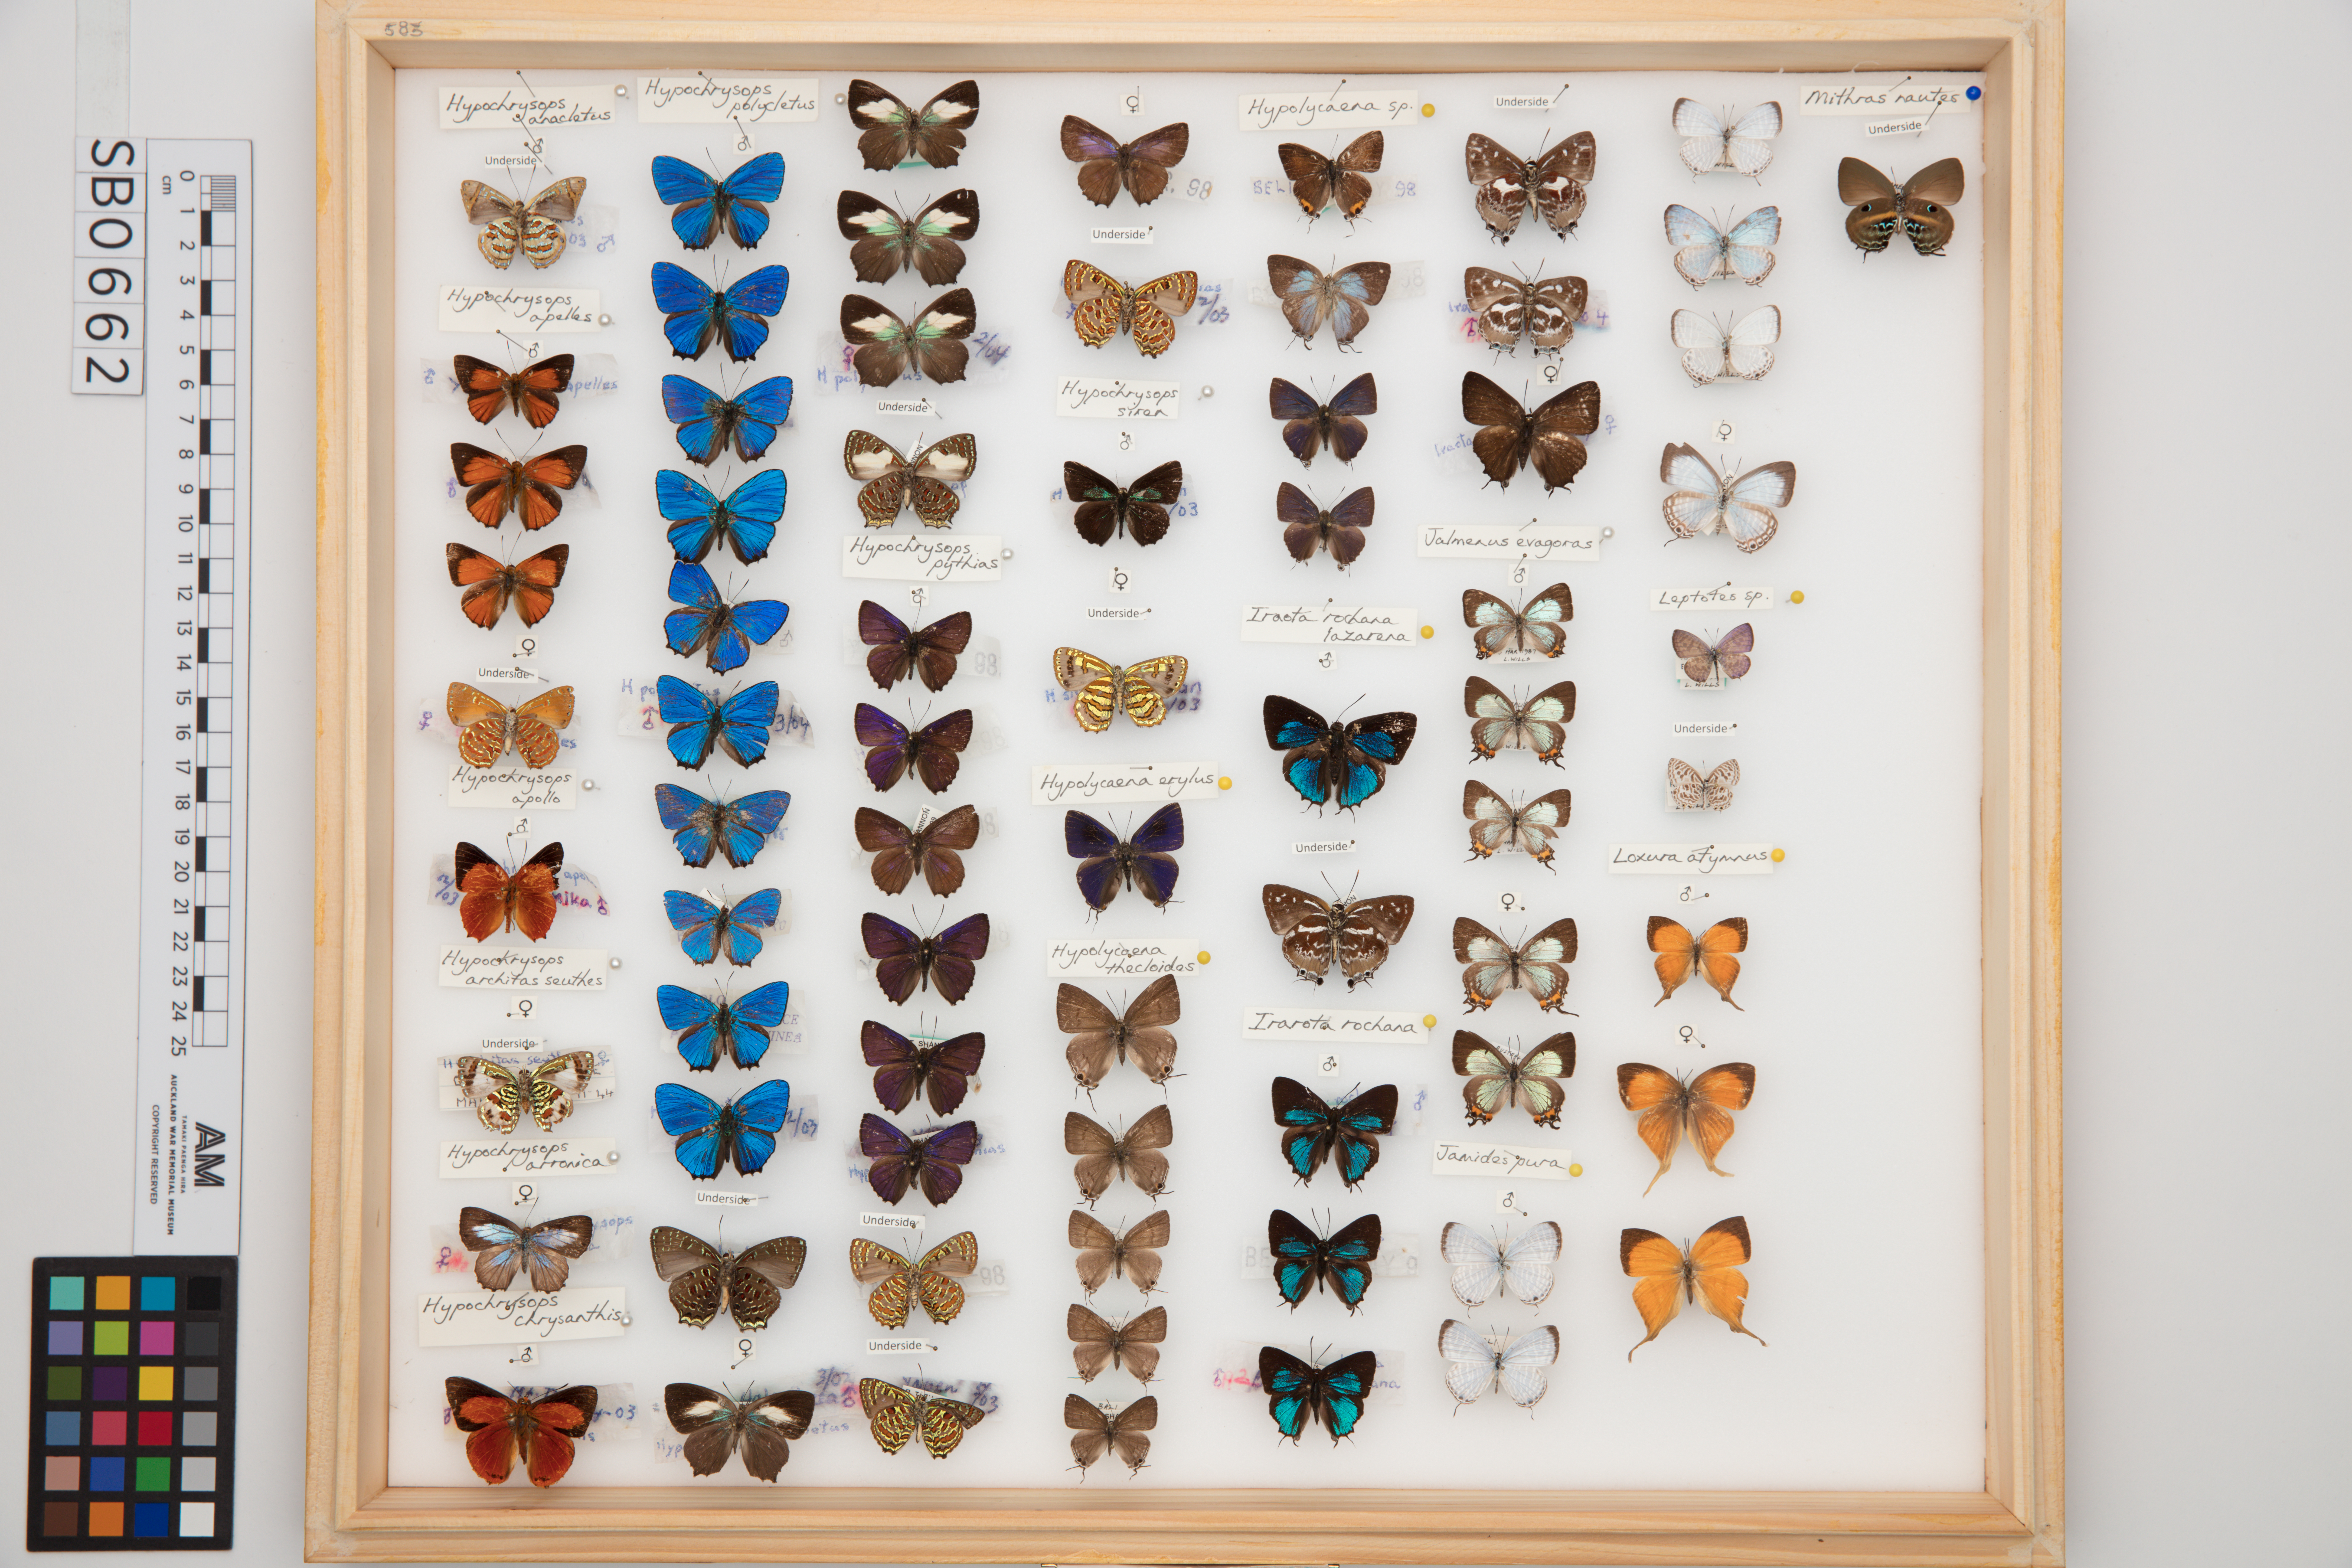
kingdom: Animalia
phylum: Arthropoda
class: Insecta
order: Lepidoptera
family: Lycaenidae
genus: Hypochrysops
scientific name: Hypochrysops chrysanthis
